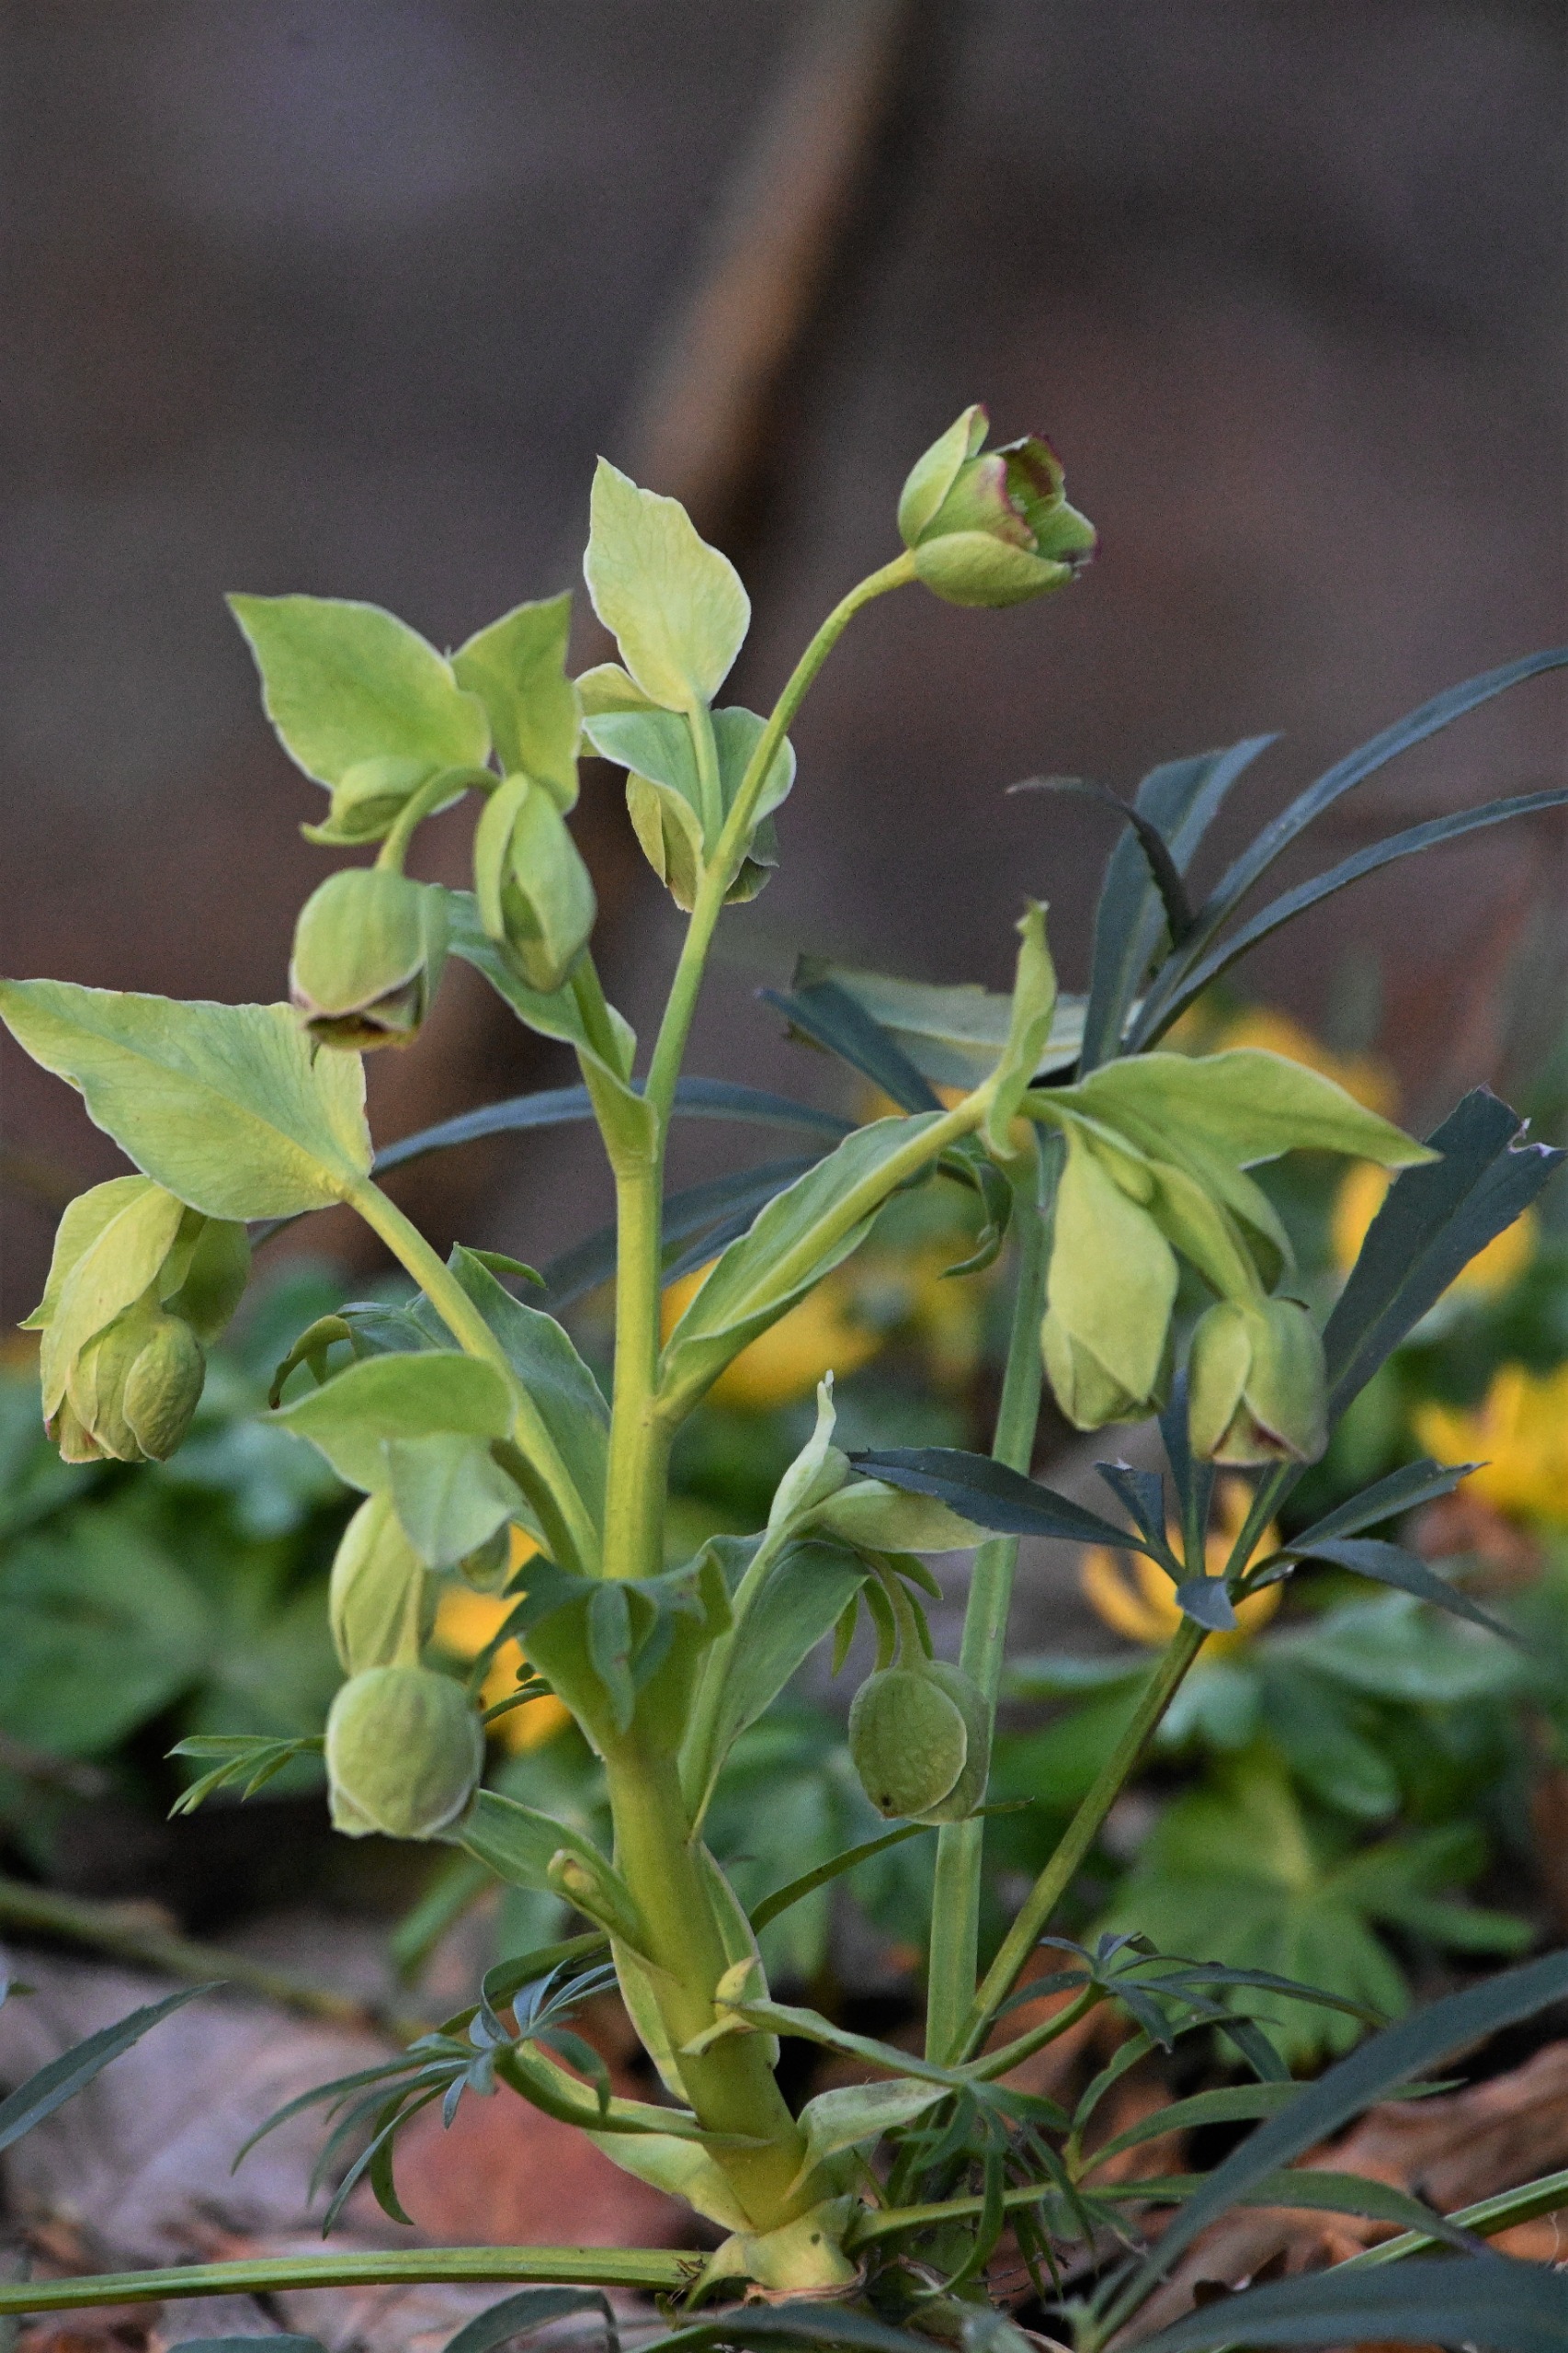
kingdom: Plantae
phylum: Tracheophyta
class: Magnoliopsida
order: Ranunculales
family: Ranunculaceae
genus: Helleborus
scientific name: Helleborus foetidus
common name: Stinkende julerose
